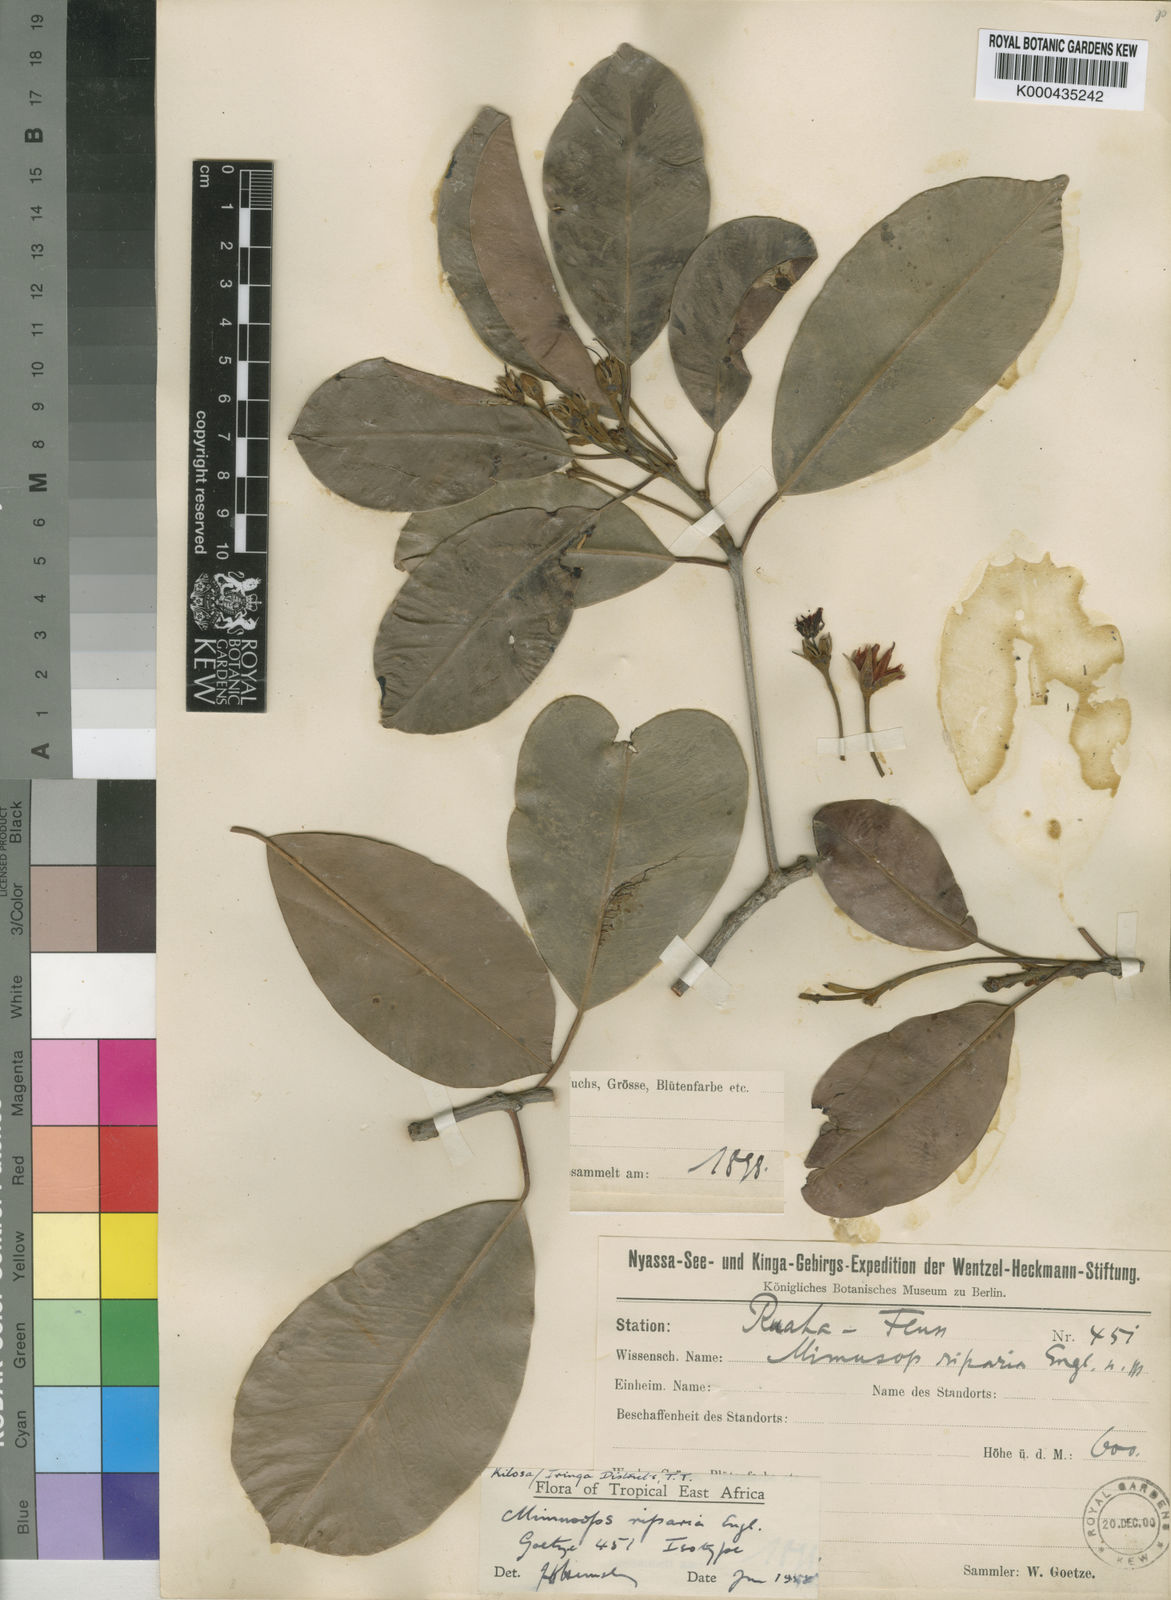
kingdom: Plantae
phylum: Tracheophyta
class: Magnoliopsida
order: Ericales
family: Sapotaceae
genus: Mimusops
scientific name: Mimusops riparia
